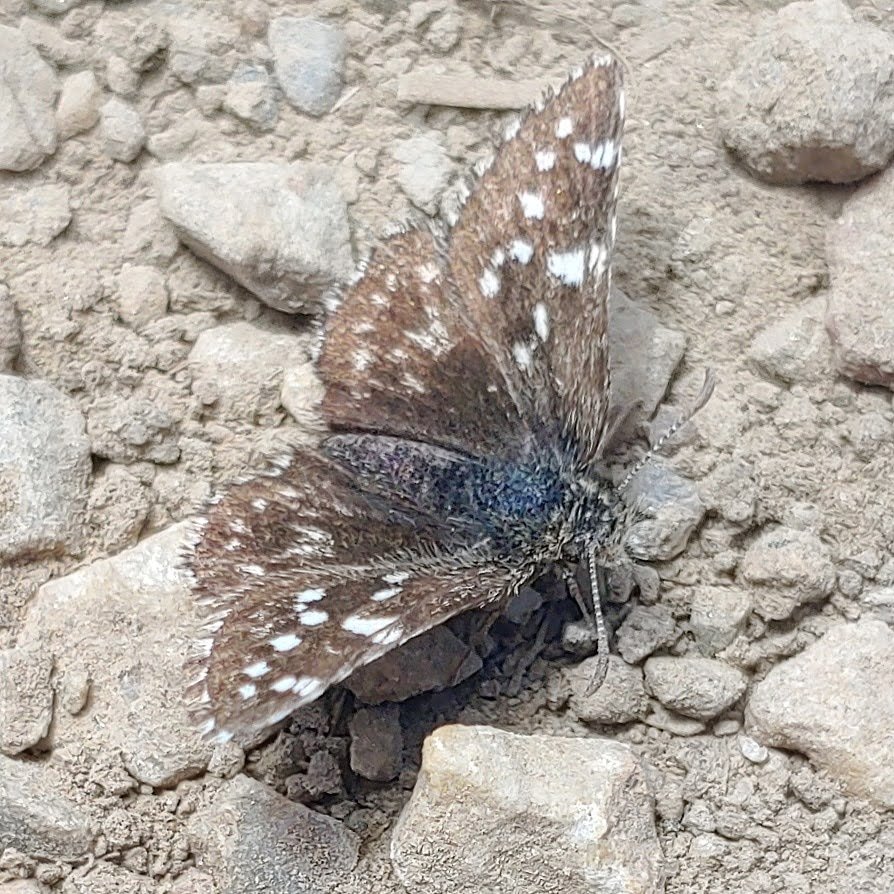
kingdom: Animalia
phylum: Arthropoda
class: Insecta
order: Lepidoptera
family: Hesperiidae
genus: Pyrgus
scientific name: Pyrgus ruralis
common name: Two-banded Checkered-Skipper
